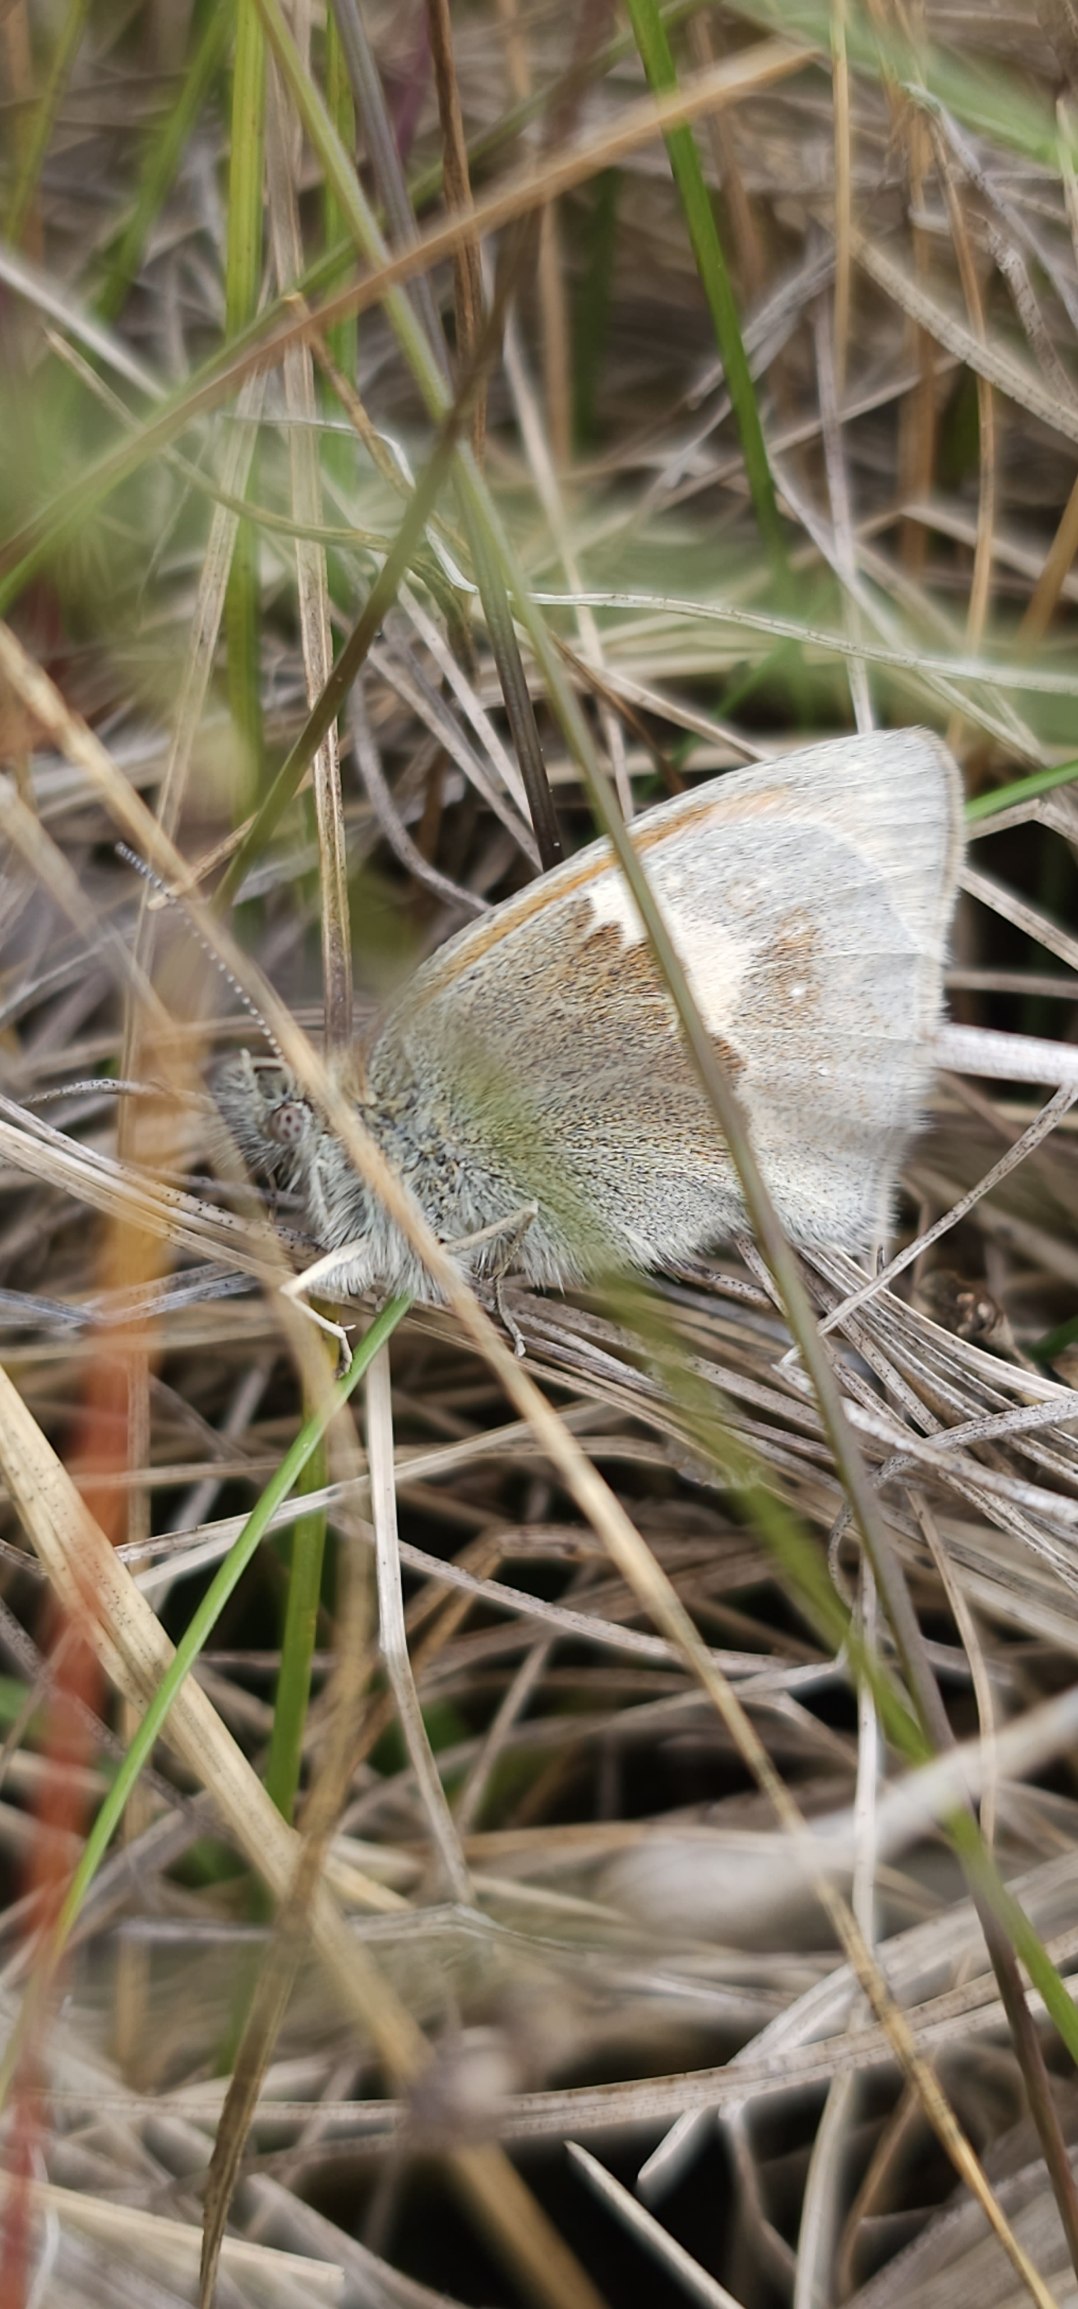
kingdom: Animalia
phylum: Arthropoda
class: Insecta
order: Lepidoptera
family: Nymphalidae
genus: Coenonympha
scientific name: Coenonympha pamphilus
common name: Okkergul randøje
